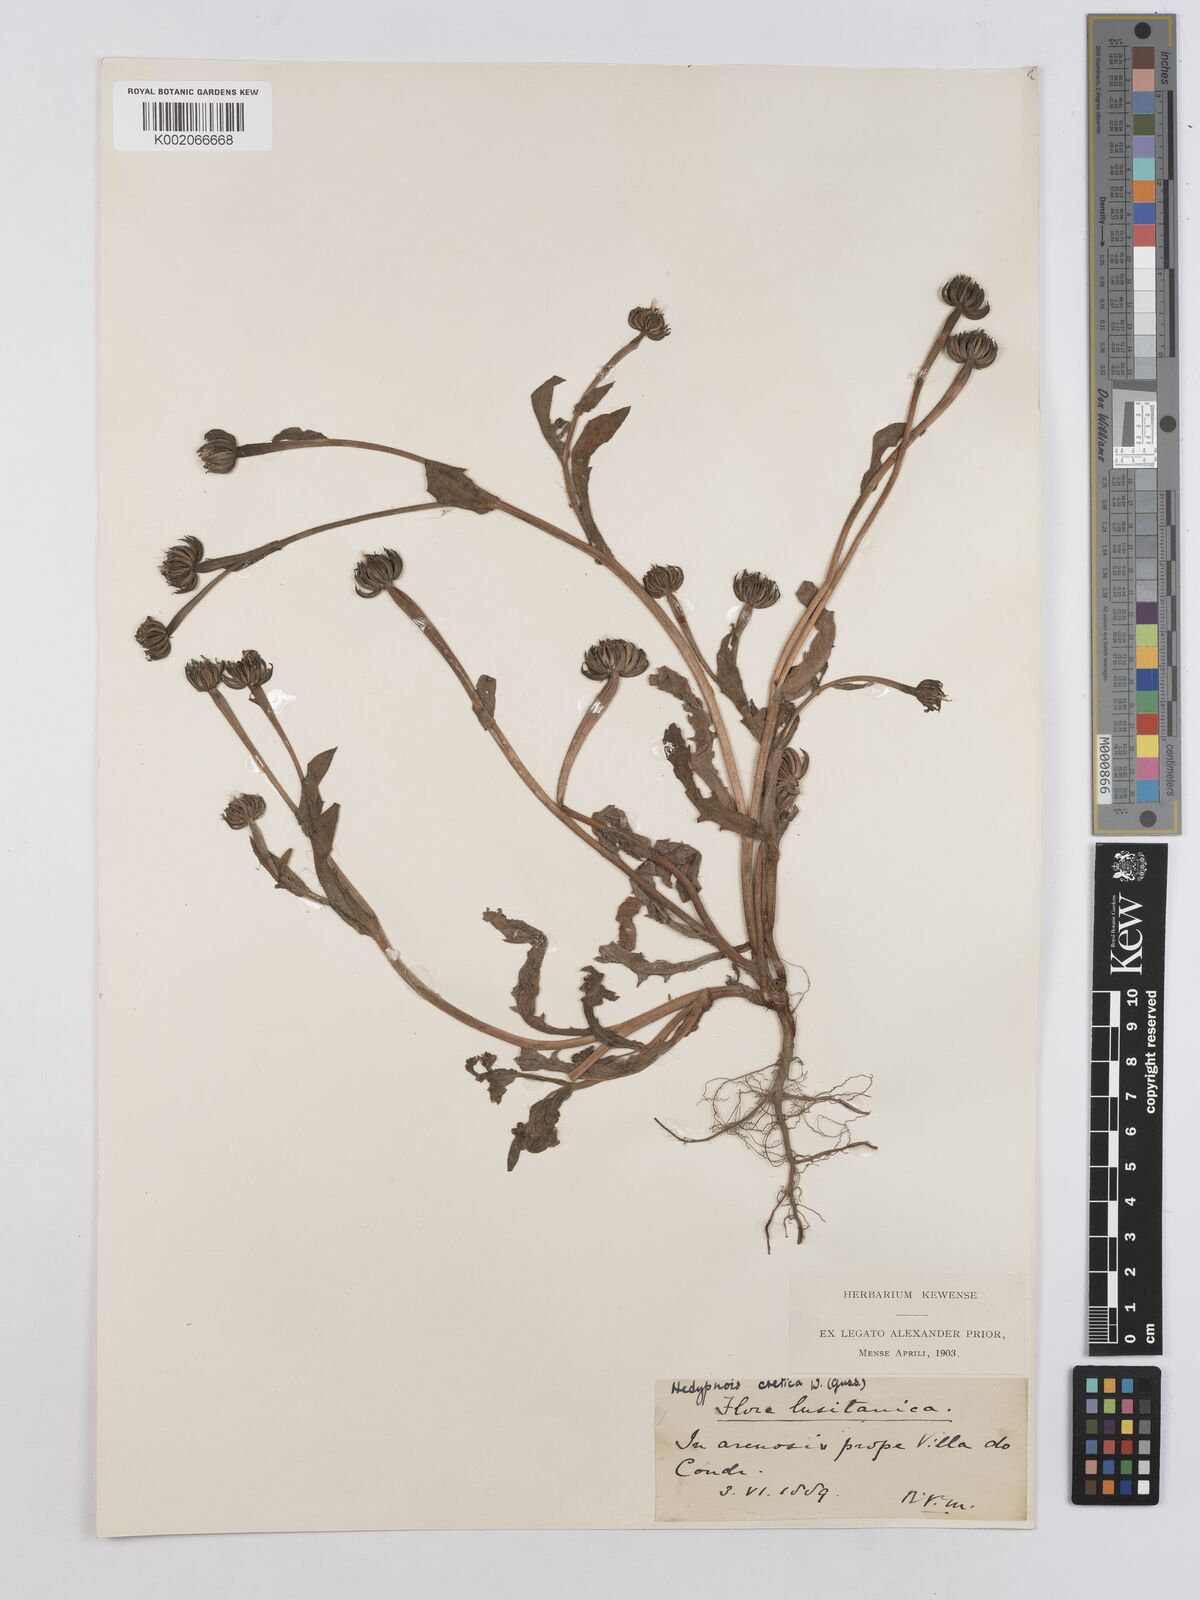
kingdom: Plantae
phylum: Tracheophyta
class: Magnoliopsida
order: Asterales
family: Asteraceae
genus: Hedypnois
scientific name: Hedypnois rhagadioloides
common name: Cretan weed
